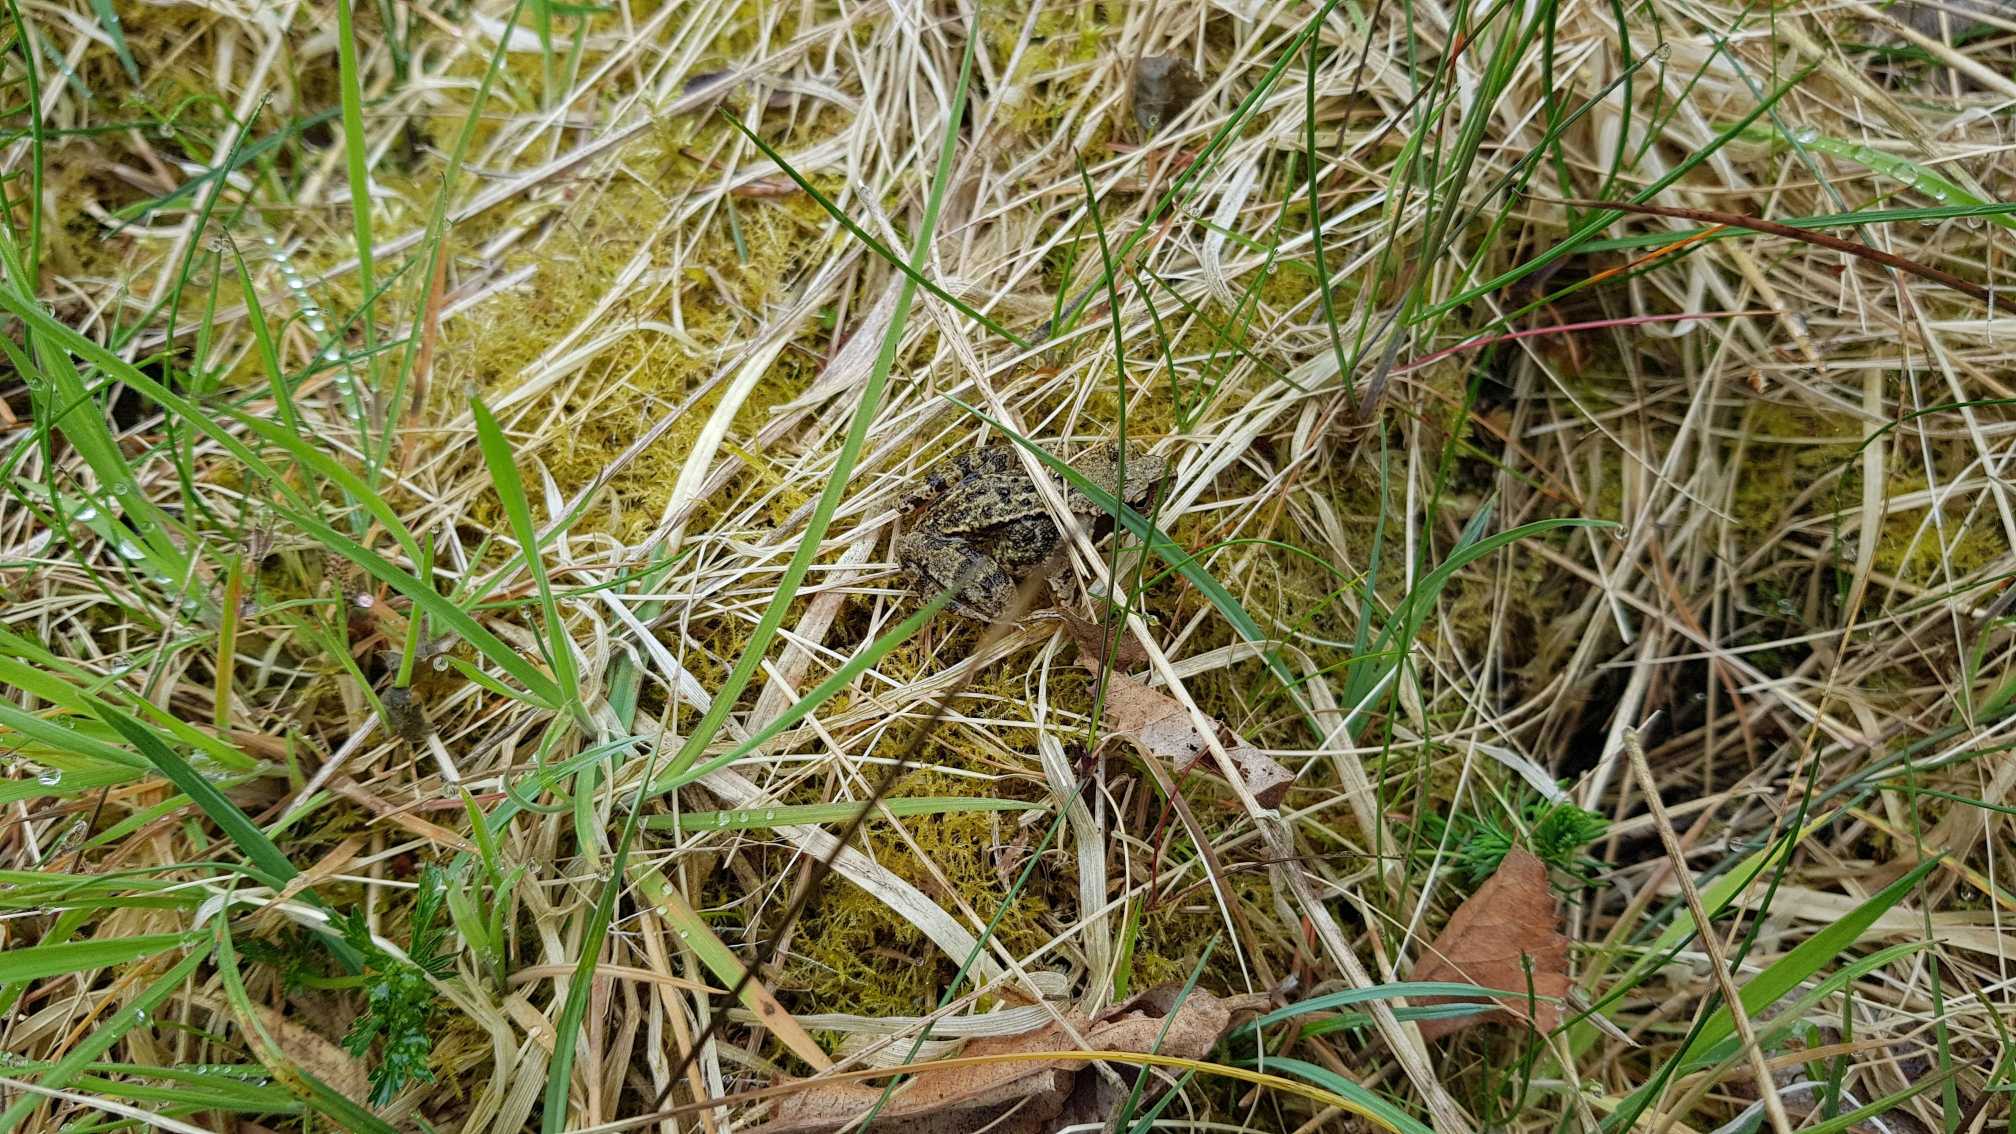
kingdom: Animalia
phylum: Chordata
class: Amphibia
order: Anura
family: Ranidae
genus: Rana
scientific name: Rana temporaria
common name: Butsnudet frø
